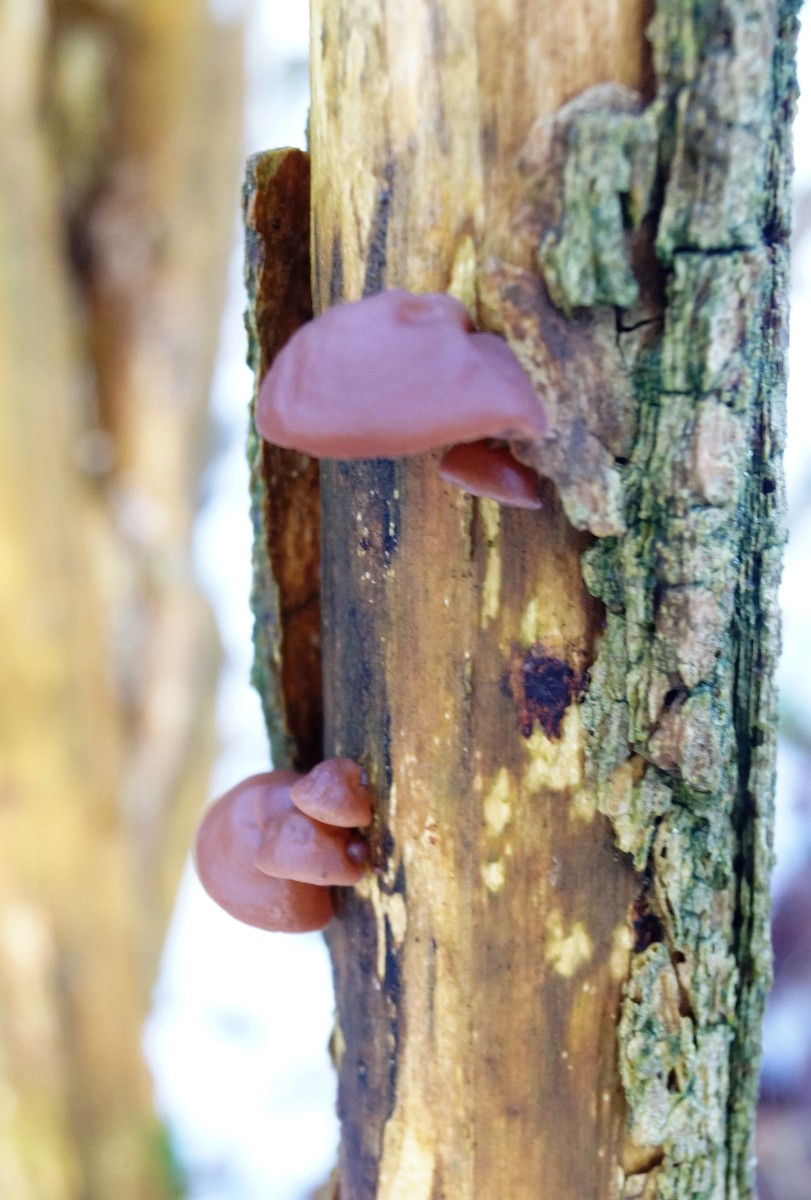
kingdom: Fungi
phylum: Basidiomycota
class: Agaricomycetes
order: Auriculariales
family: Auriculariaceae
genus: Auricularia
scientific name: Auricularia auricula-judae
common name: almindelig judasøre
